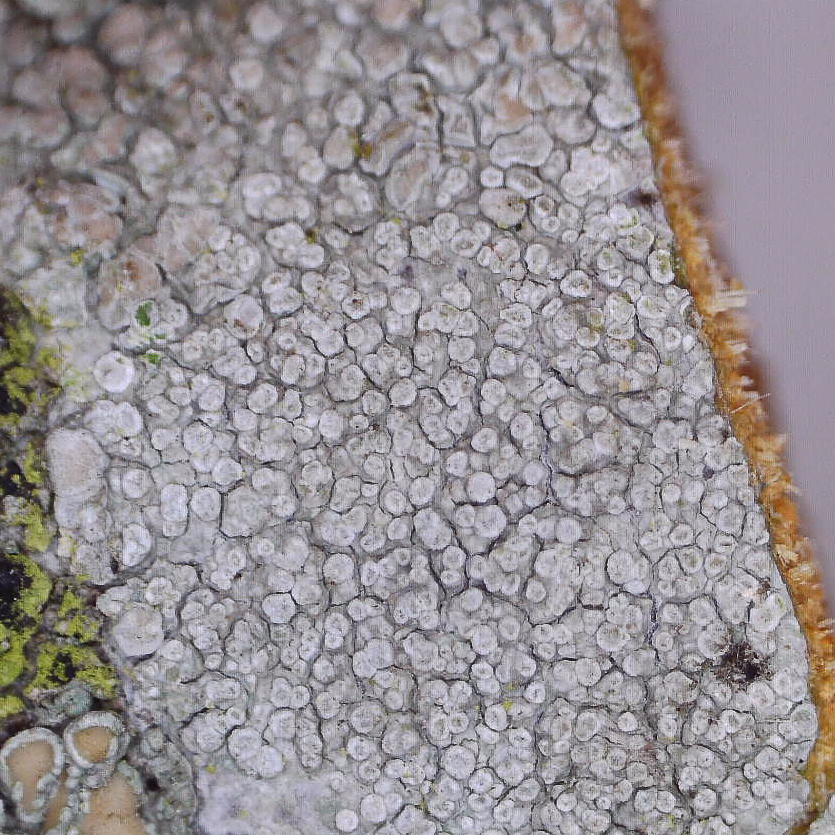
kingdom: Fungi
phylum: Ascomycota
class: Lecanoromycetes
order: Lecanorales
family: Lecanoraceae
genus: Glaucomaria
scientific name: Glaucomaria carpinea
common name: hviddugget kantskivelav
